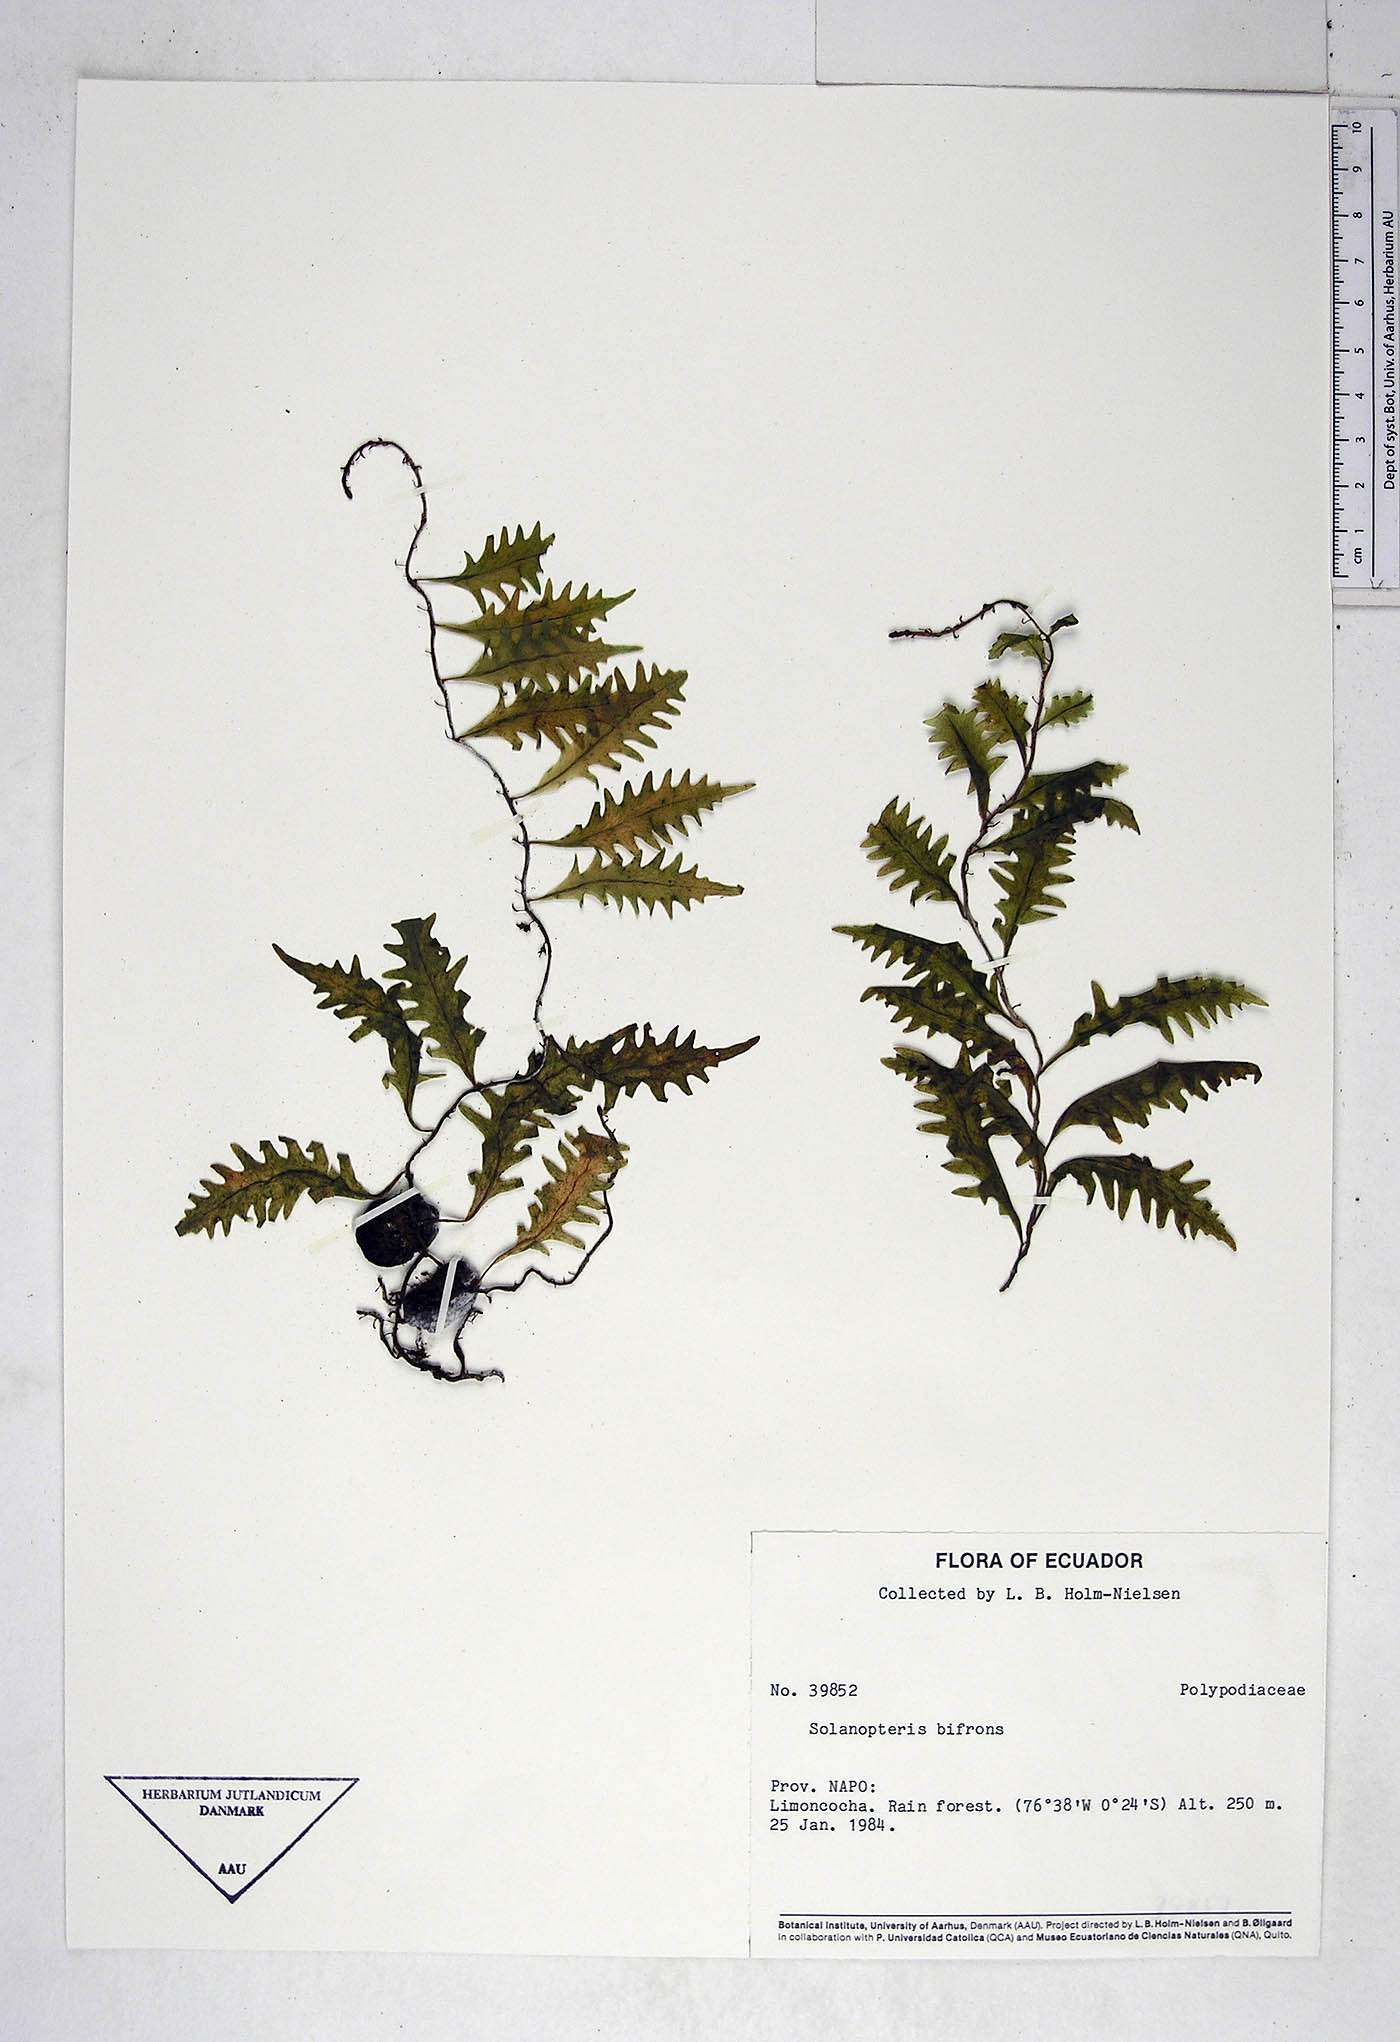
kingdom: Plantae
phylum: Tracheophyta
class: Polypodiopsida
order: Polypodiales
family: Polypodiaceae
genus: Microgramma
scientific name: Microgramma bifrons
